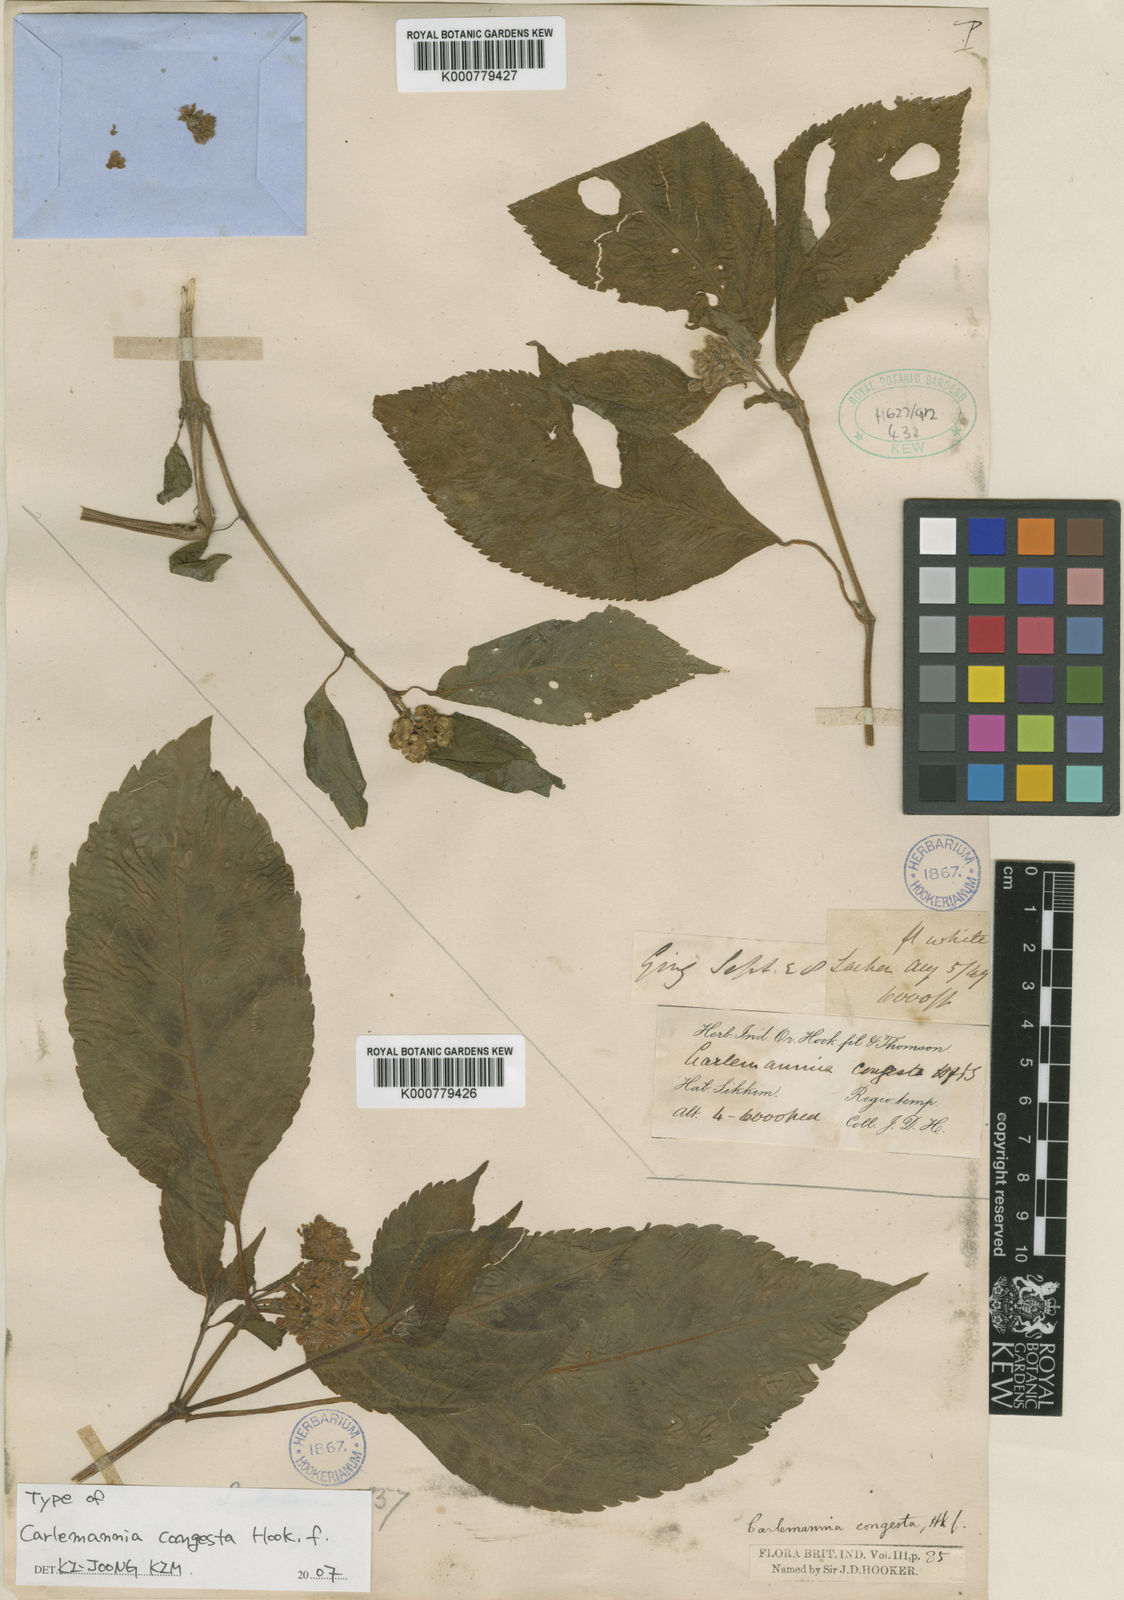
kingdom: Plantae
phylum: Tracheophyta
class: Magnoliopsida
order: Lamiales
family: Carlemanniaceae
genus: Carlemannia
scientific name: Carlemannia congesta
